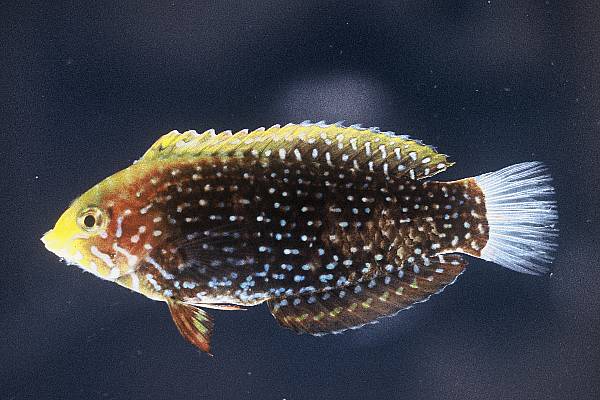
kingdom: Animalia
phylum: Chordata
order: Perciformes
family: Labridae
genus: Macropharyngodon
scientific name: Macropharyngodon cyanoguttatus
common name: Bluespotted wrasse
